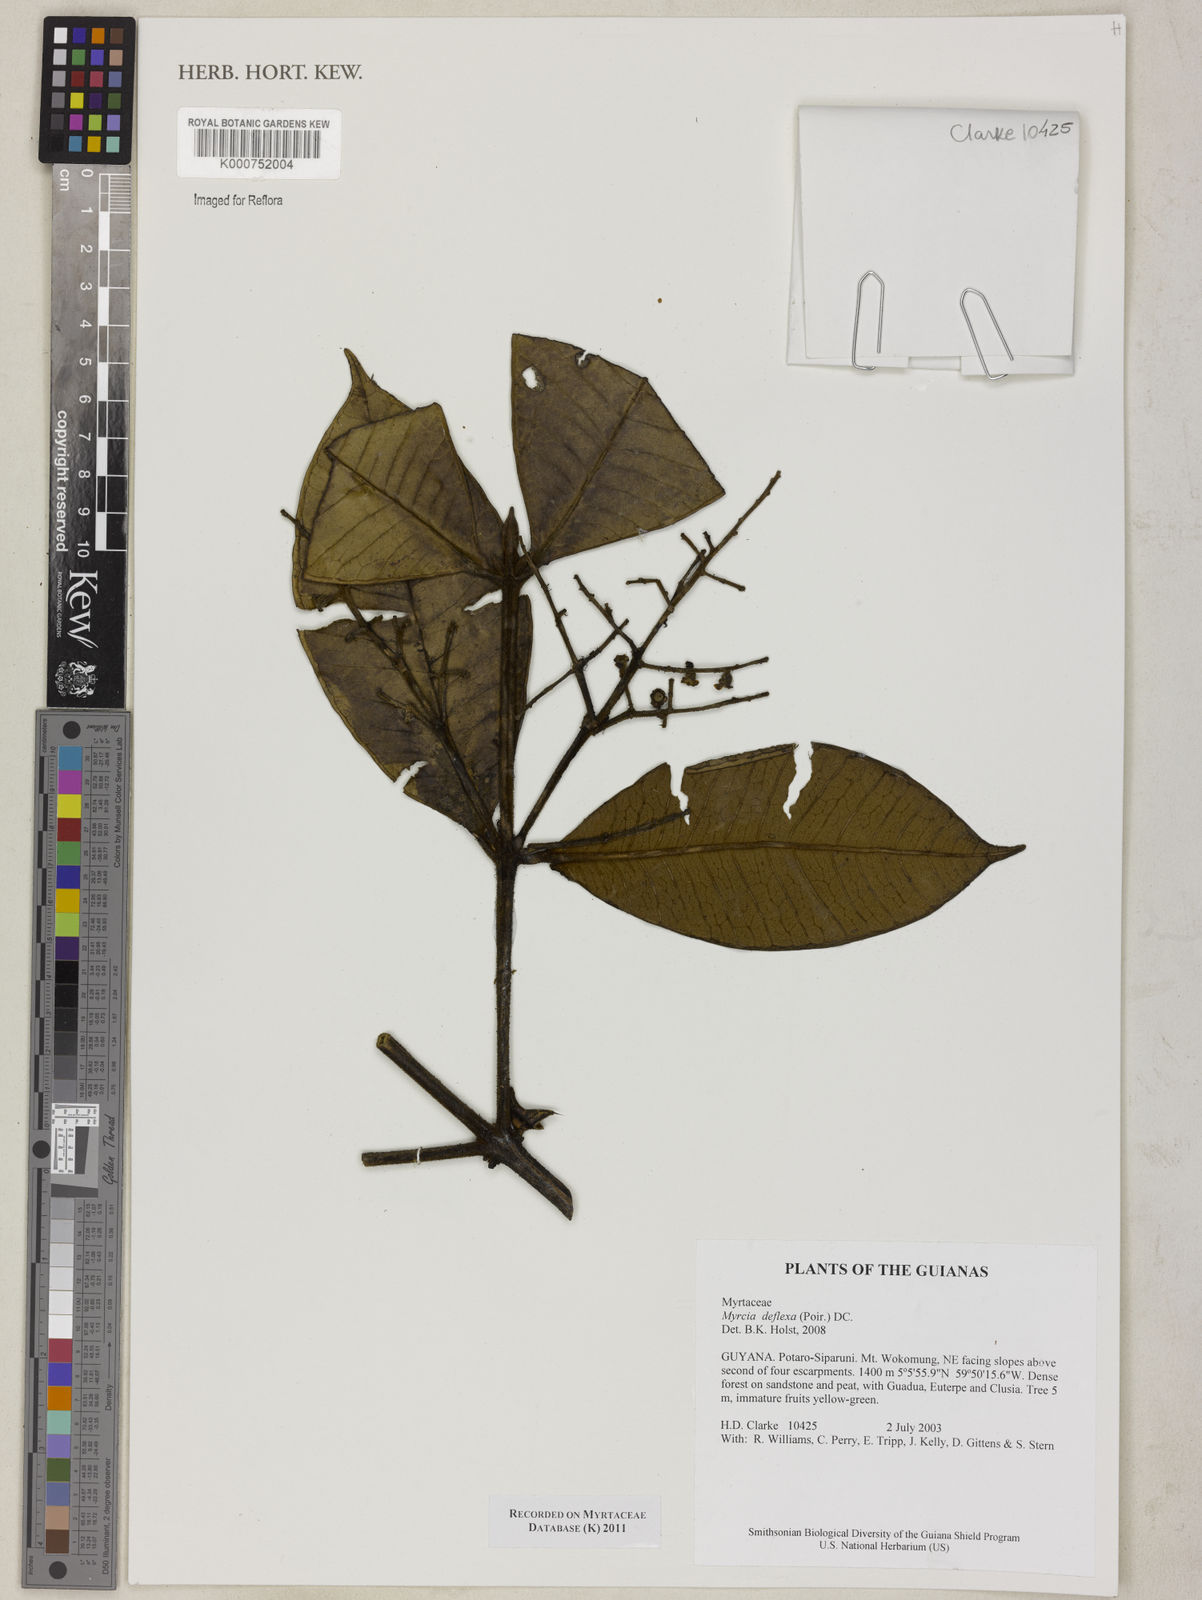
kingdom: Plantae
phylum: Tracheophyta
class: Magnoliopsida
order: Myrtales
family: Myrtaceae
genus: Myrcia
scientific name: Myrcia deflexa
